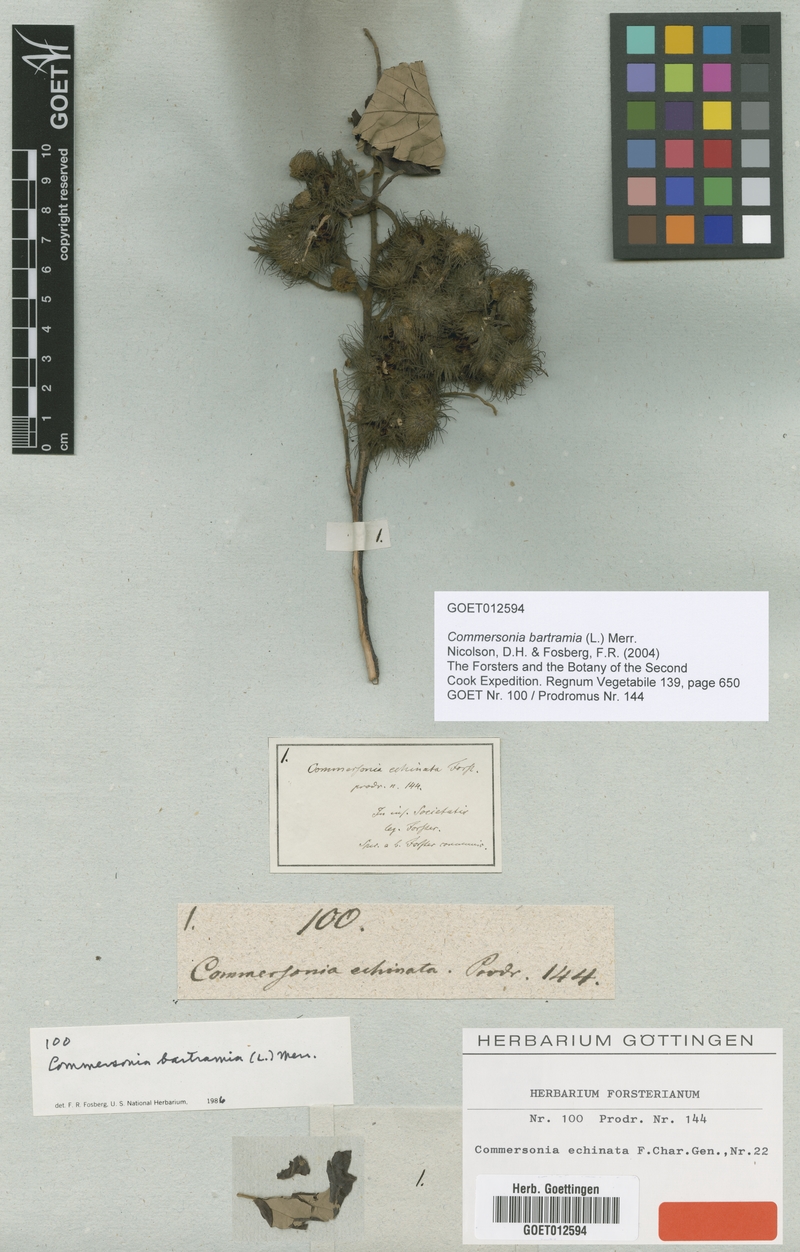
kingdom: Plantae
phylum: Tracheophyta
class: Magnoliopsida
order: Malvales
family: Malvaceae
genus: Commersonia
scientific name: Commersonia bartramia
